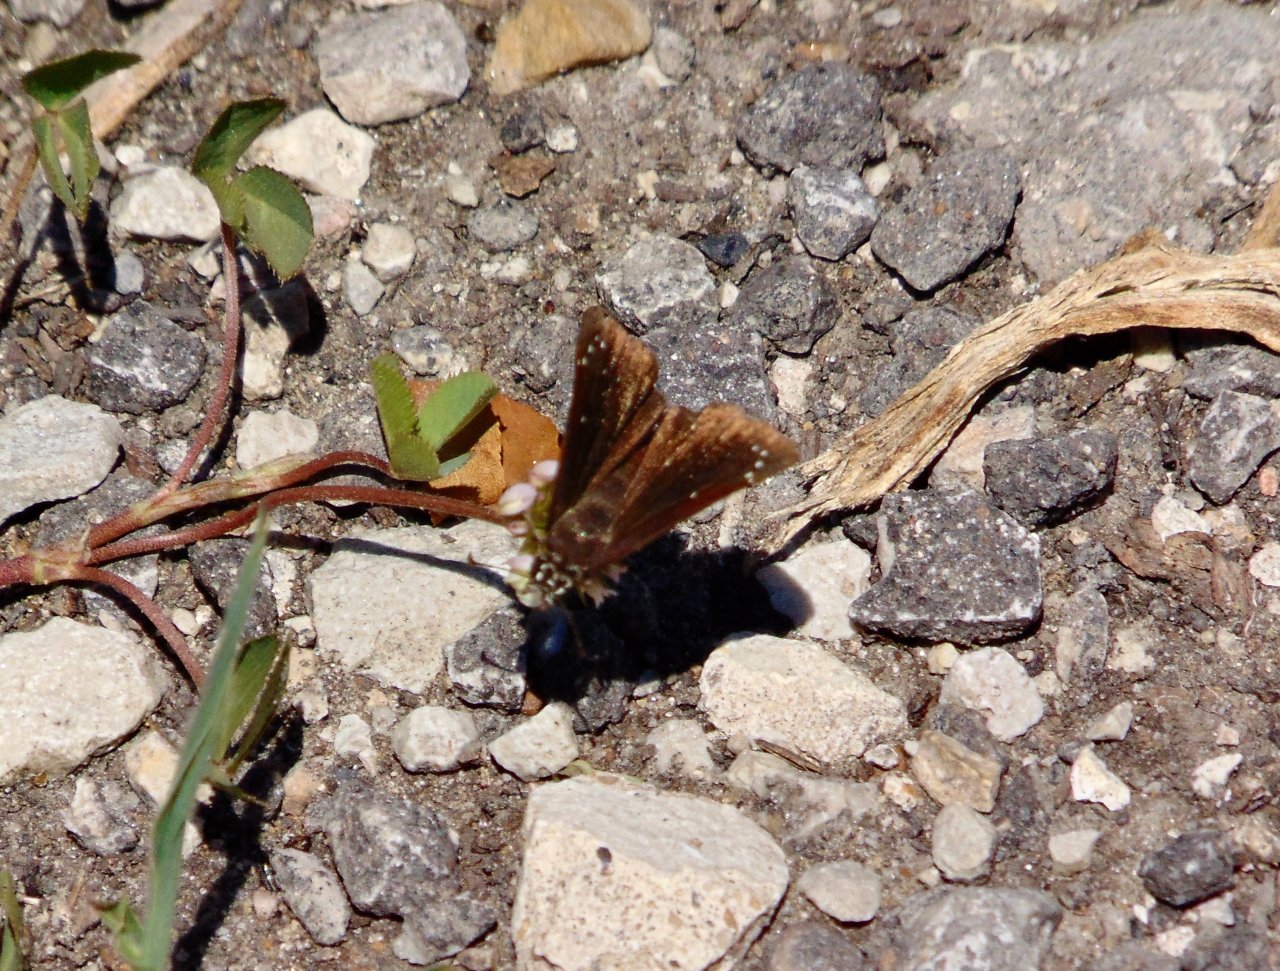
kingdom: Animalia
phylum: Arthropoda
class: Insecta
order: Lepidoptera
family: Hesperiidae
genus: Pholisora
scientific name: Pholisora catullus
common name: Common Sootywing
